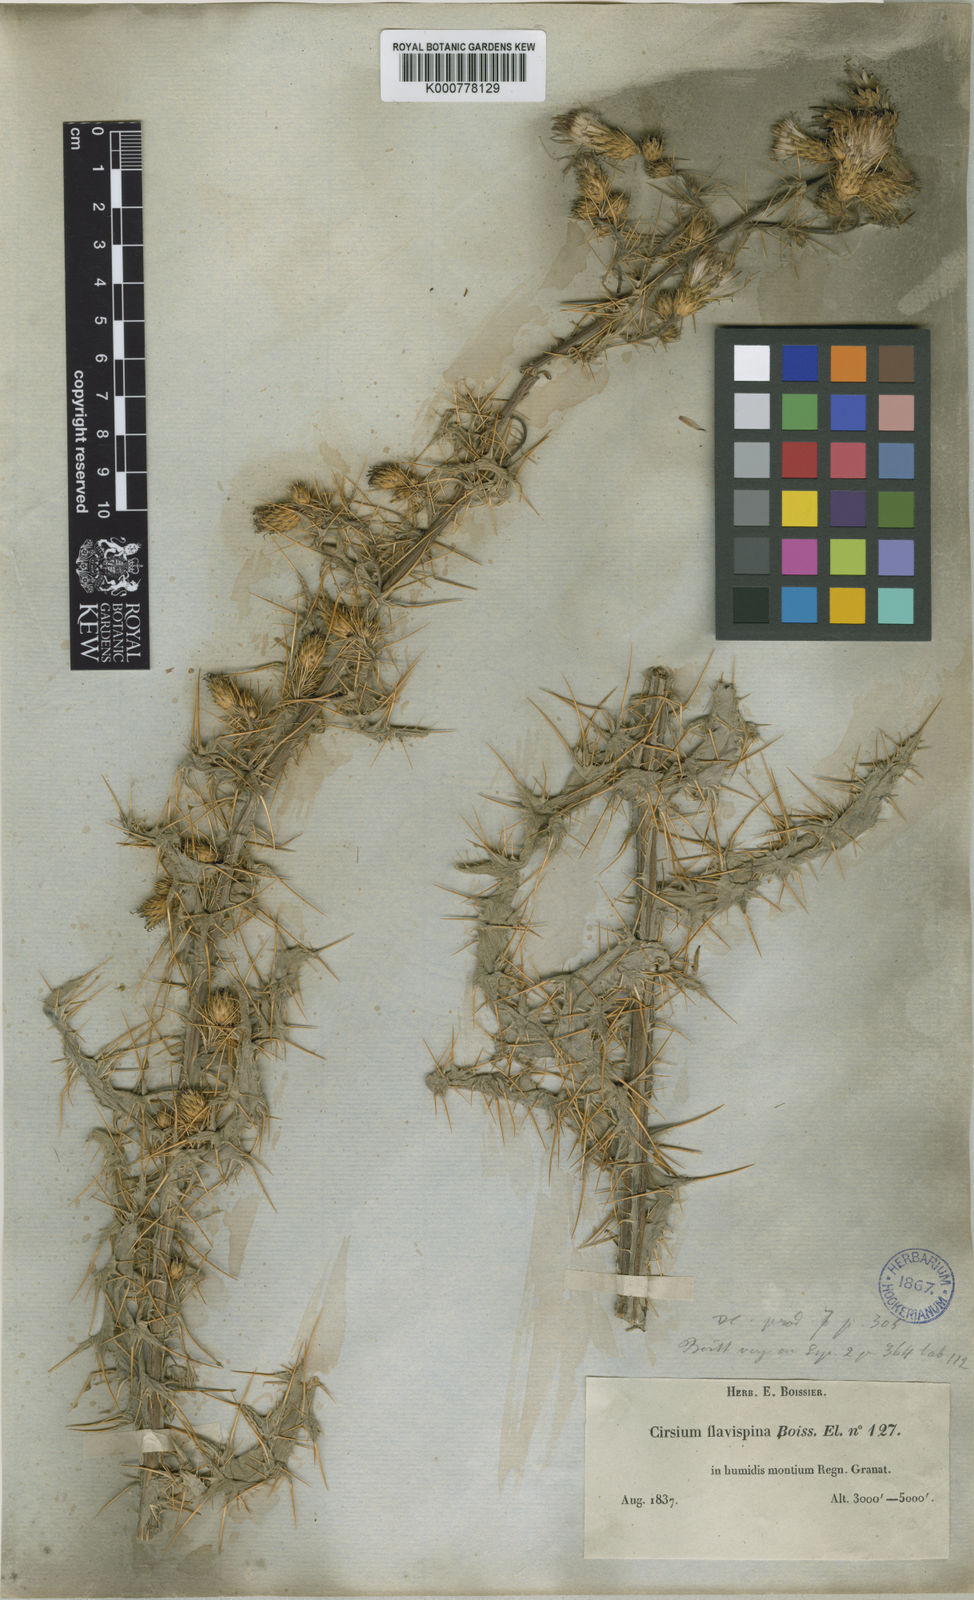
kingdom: Plantae
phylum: Tracheophyta
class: Magnoliopsida
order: Asterales
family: Asteraceae
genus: Cirsium
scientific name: Cirsium
